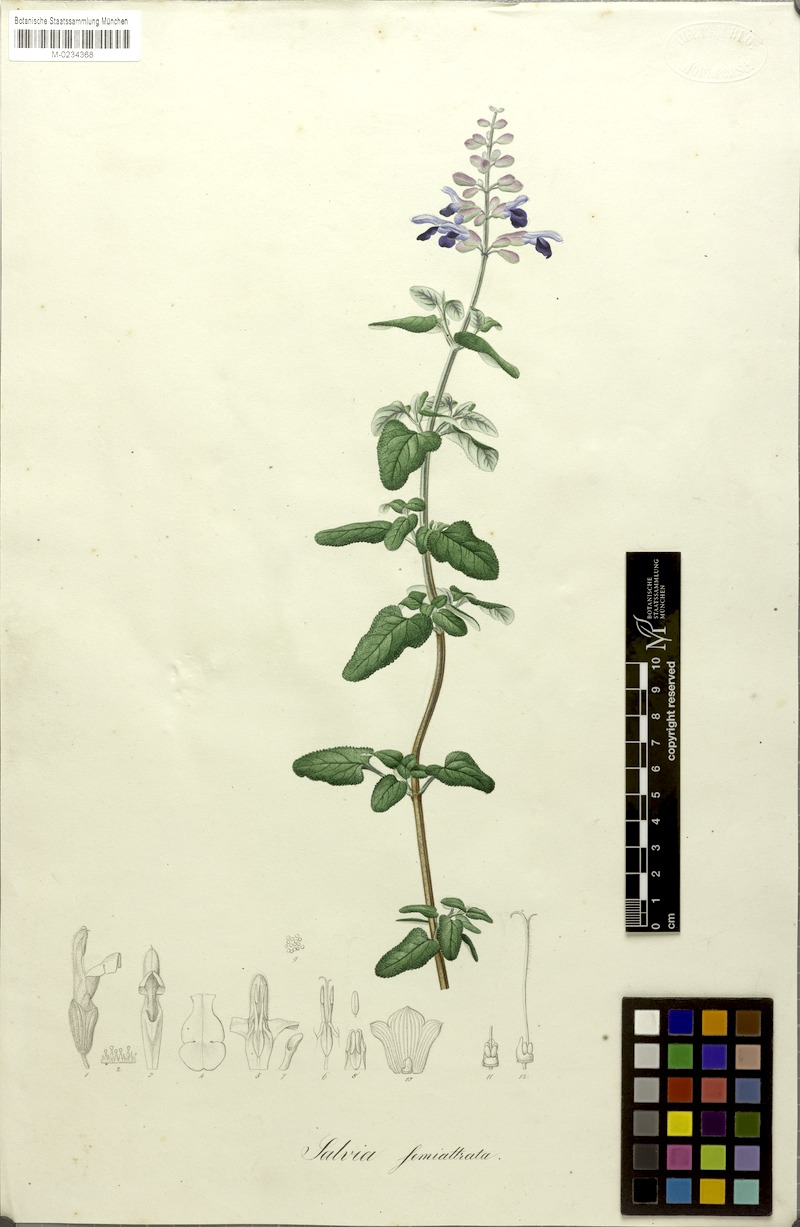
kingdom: Plantae
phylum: Tracheophyta
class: Magnoliopsida
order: Lamiales
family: Lamiaceae
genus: Salvia
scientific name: Salvia semiatrata
